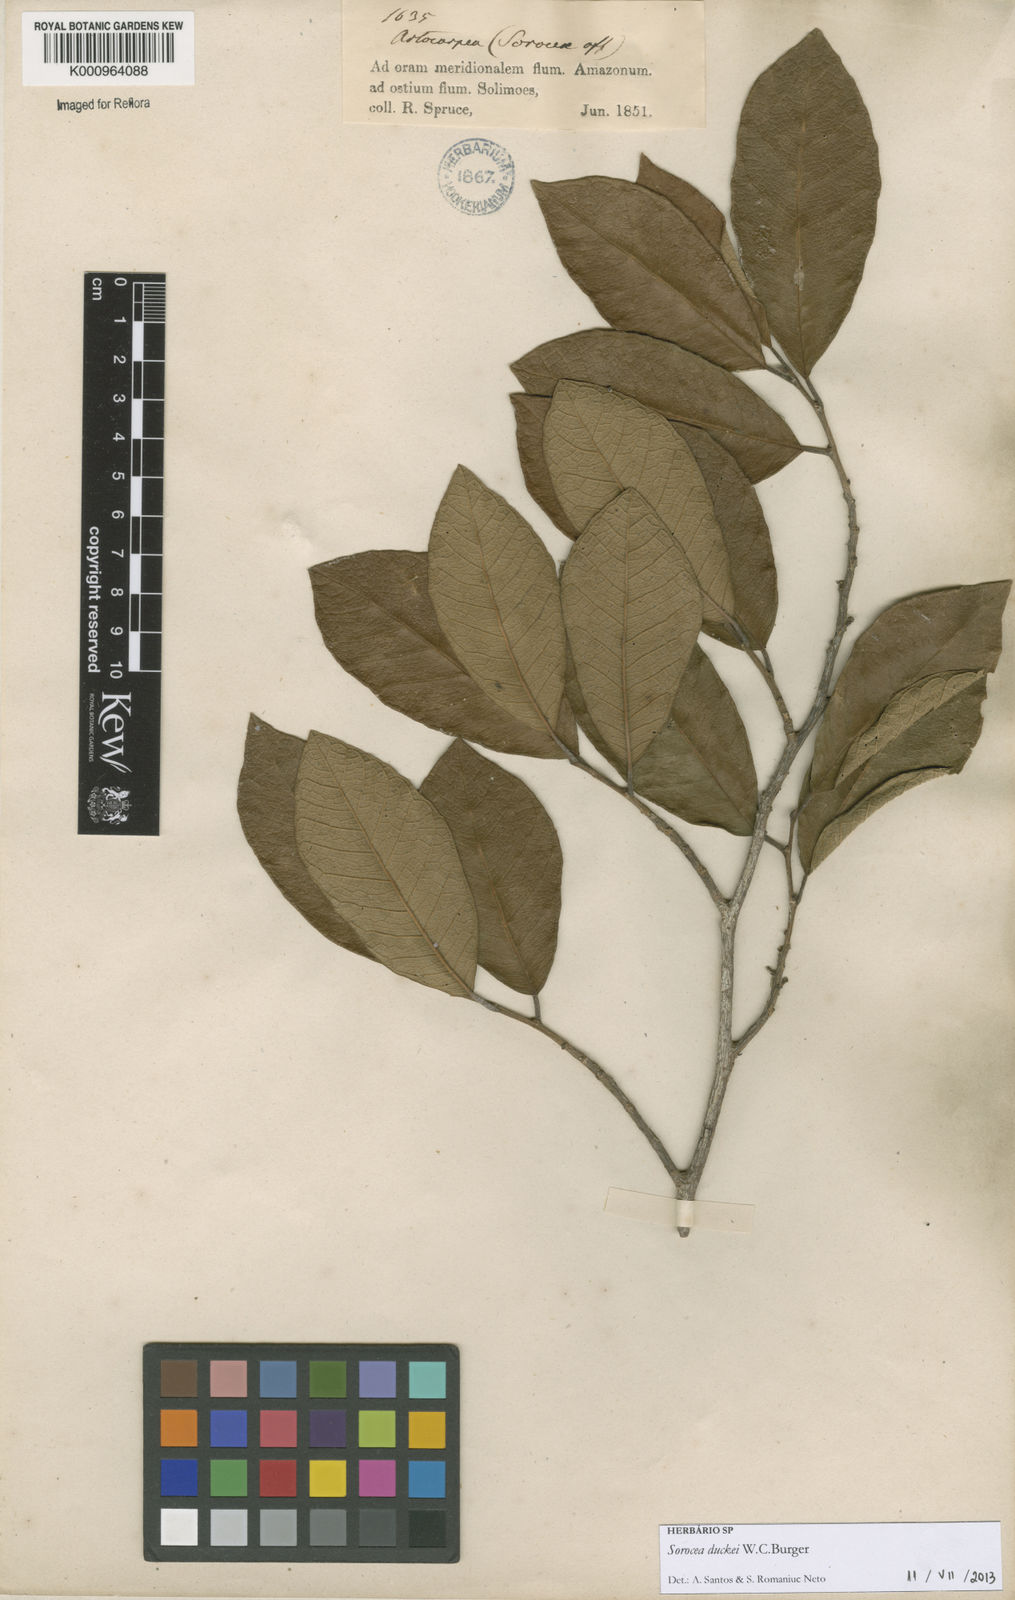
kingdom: Plantae
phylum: Tracheophyta
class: Magnoliopsida
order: Rosales
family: Moraceae
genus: Sorocea
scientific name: Sorocea duckei
